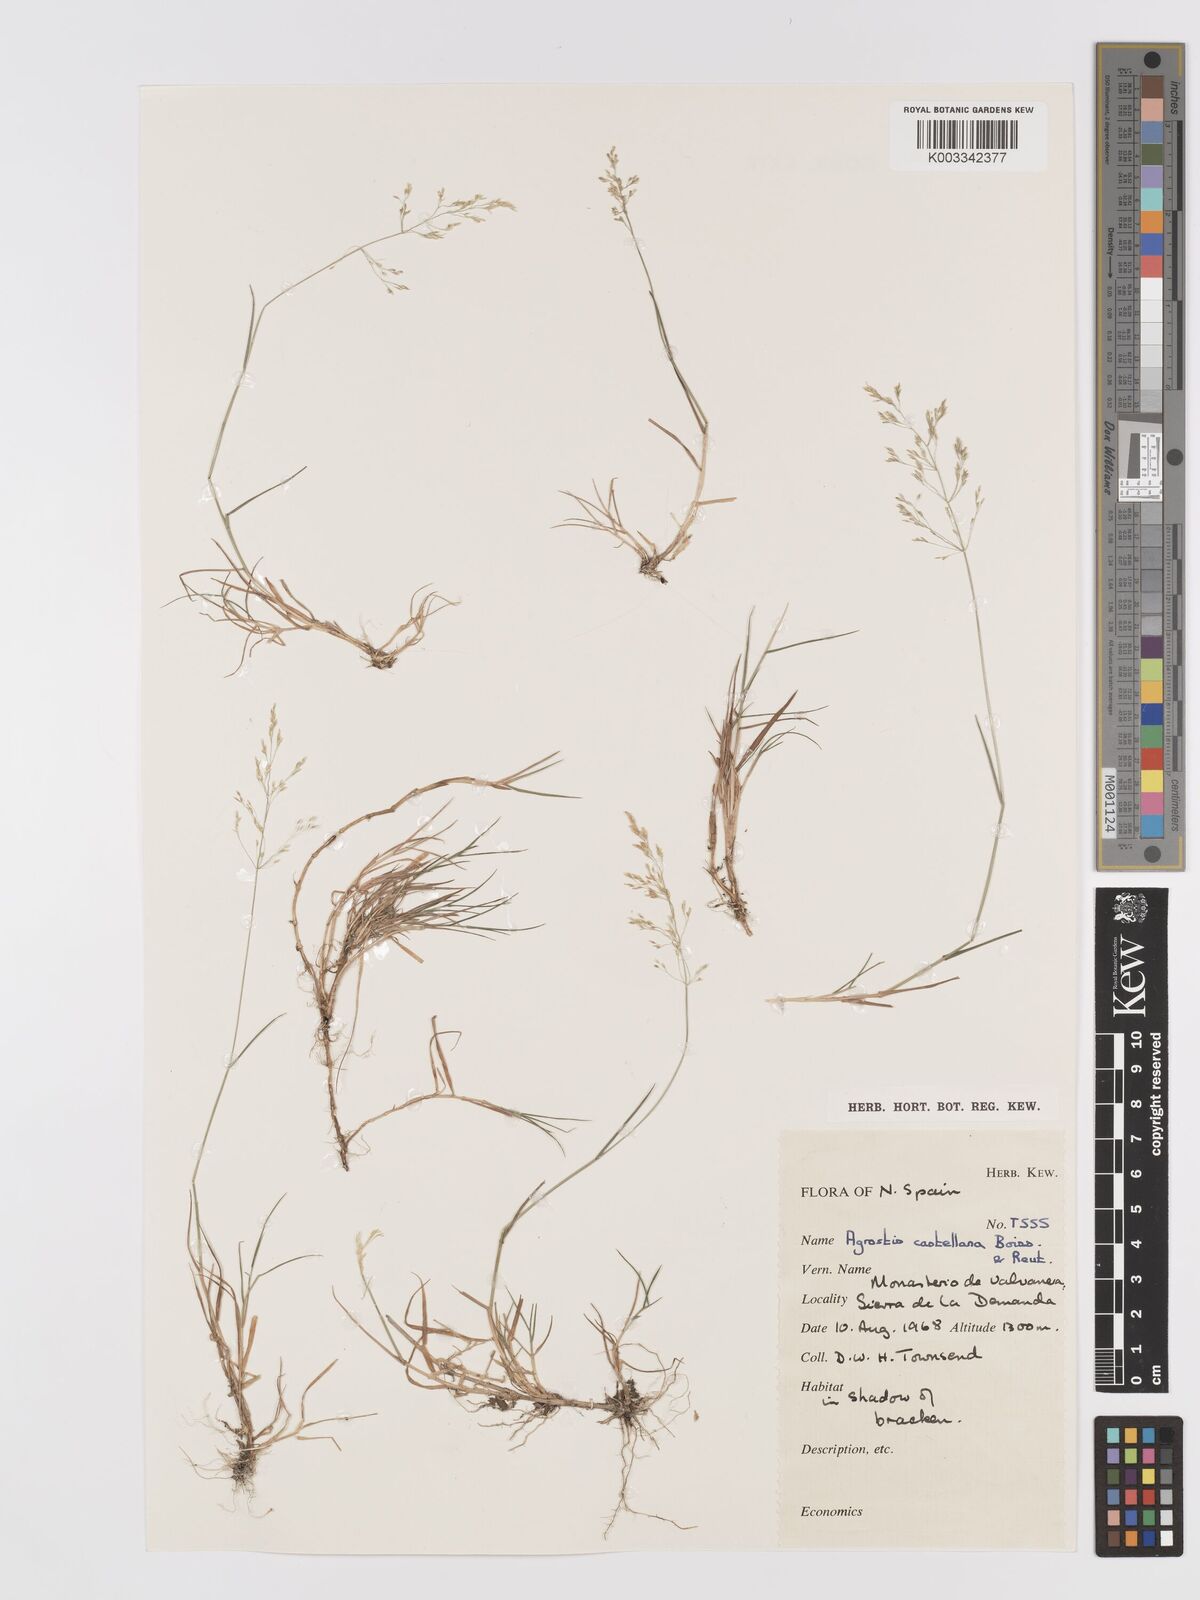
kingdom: Plantae
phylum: Tracheophyta
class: Liliopsida
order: Poales
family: Poaceae
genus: Agrostis
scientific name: Agrostis castellana
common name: Highland bent
